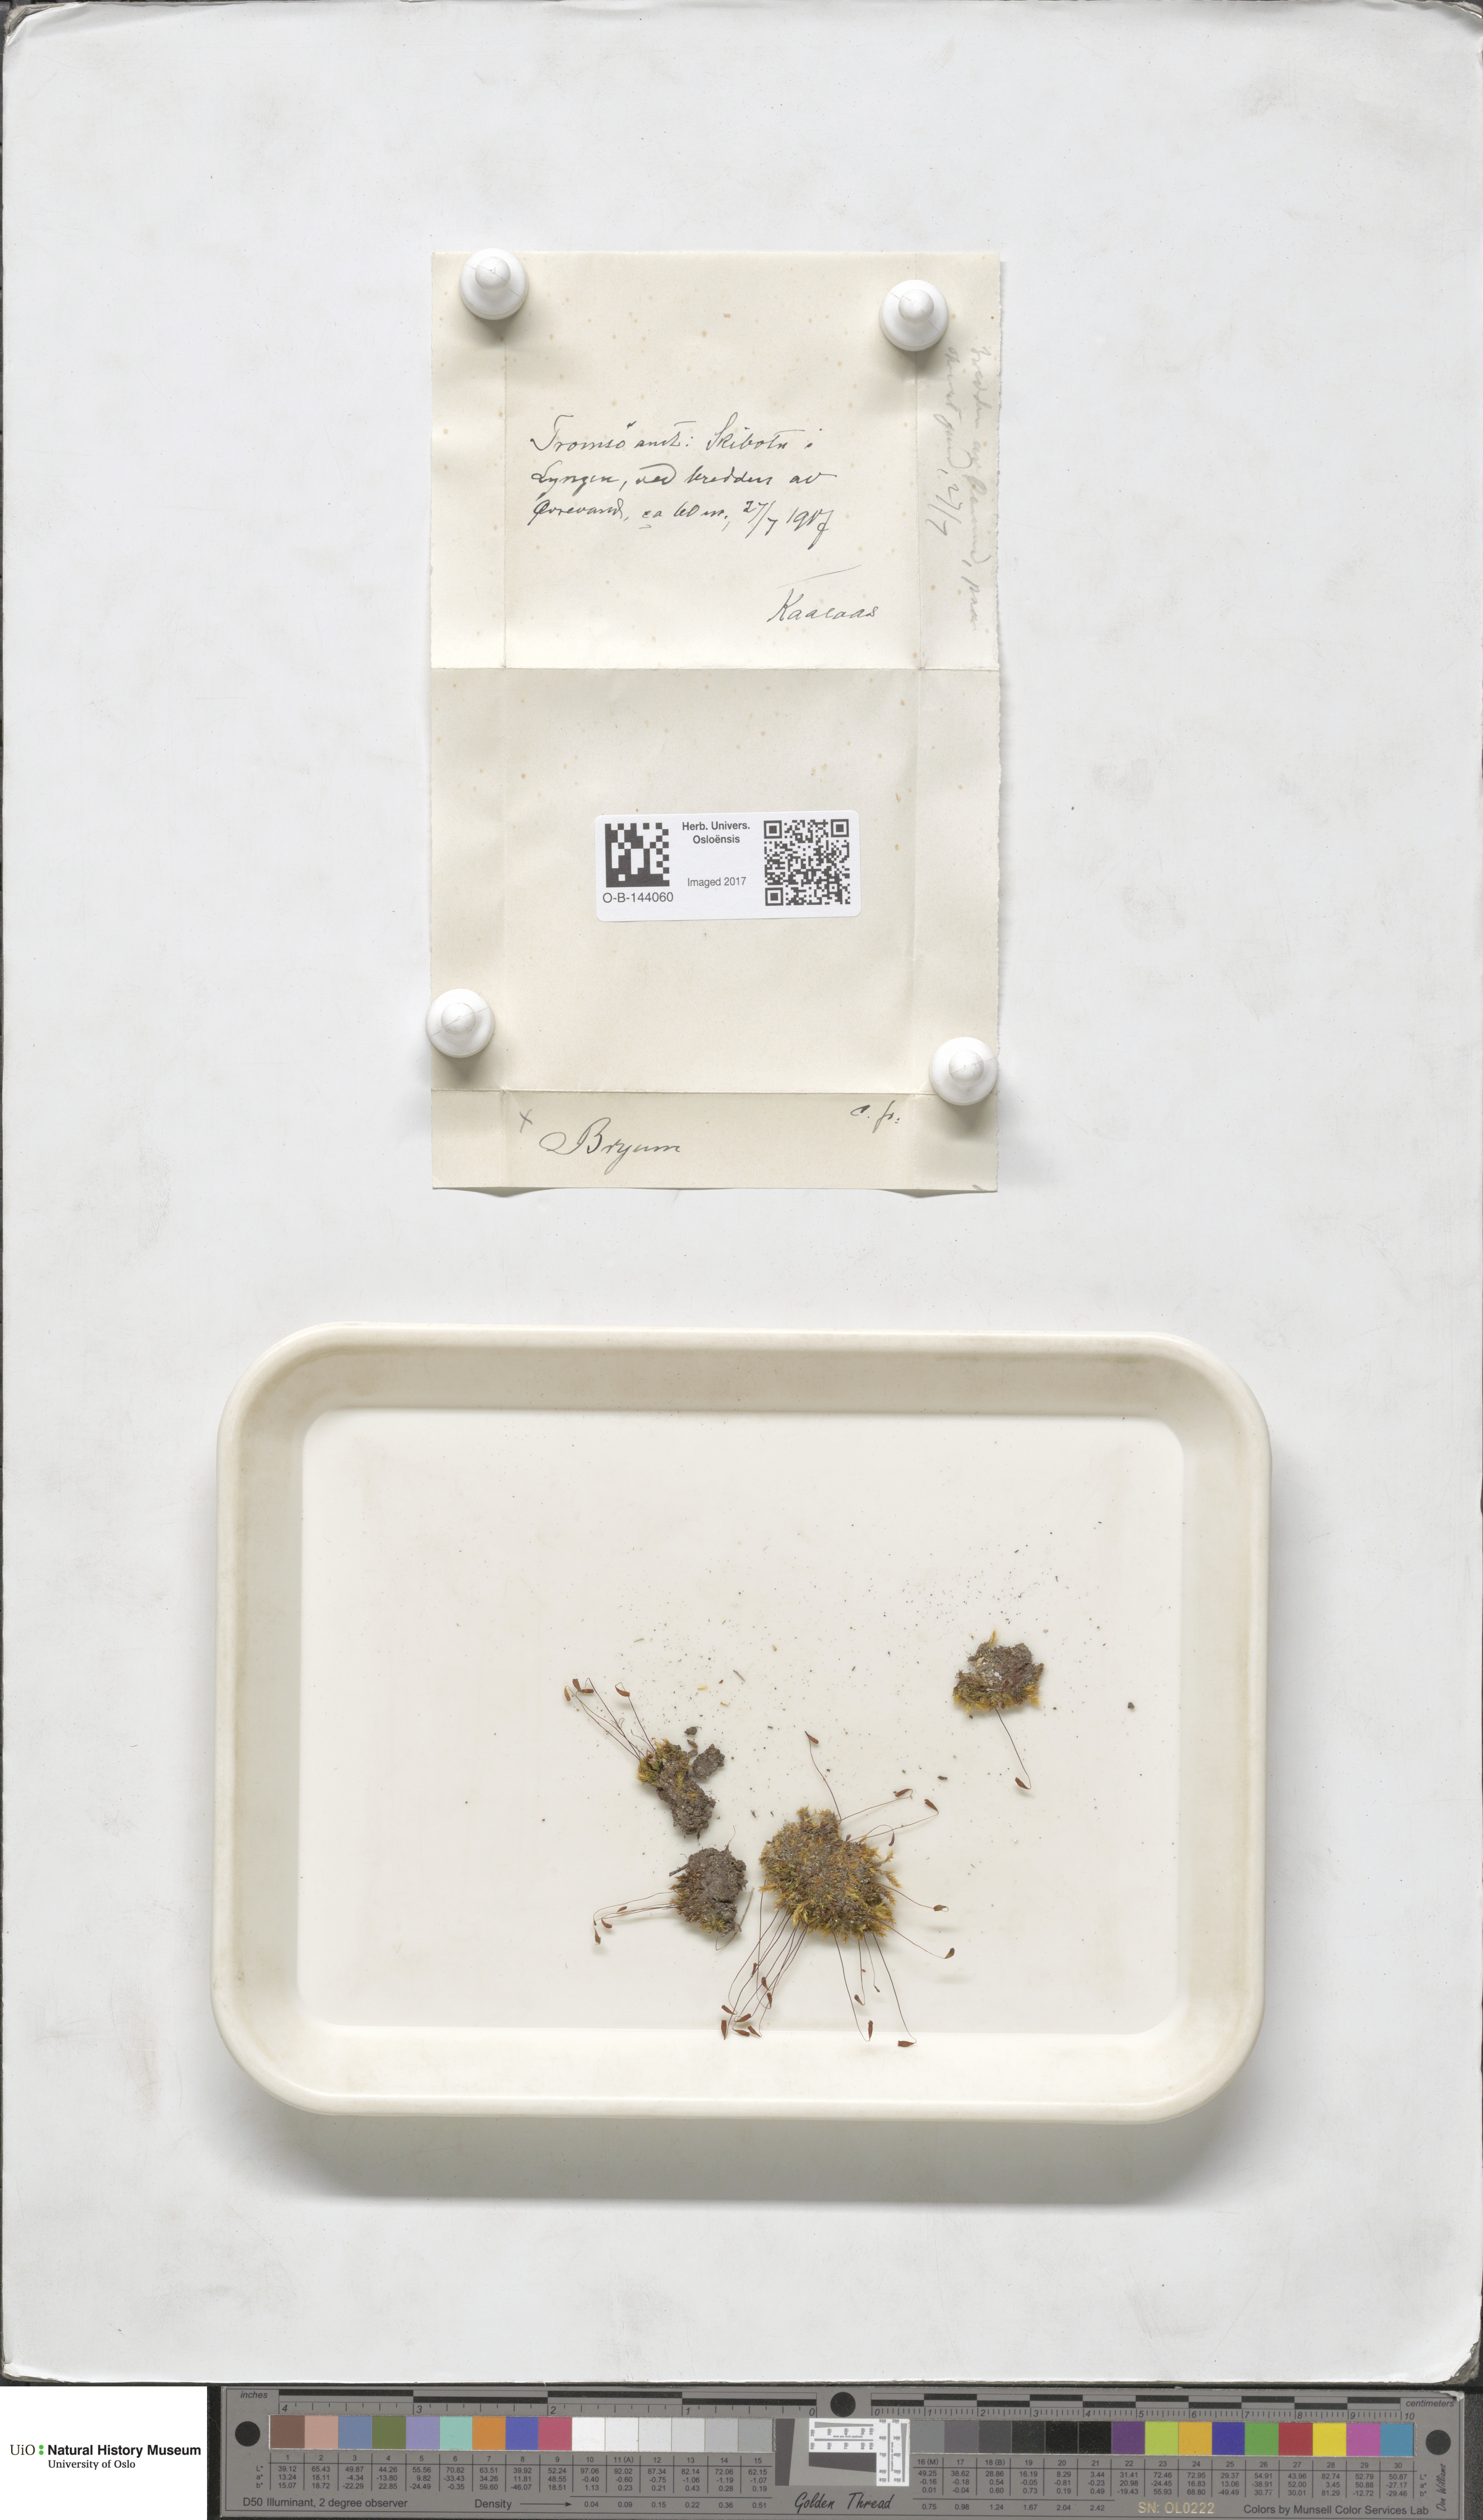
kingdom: Plantae
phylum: Bryophyta
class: Bryopsida
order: Bryales
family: Bryaceae
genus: Bryum
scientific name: Bryum
